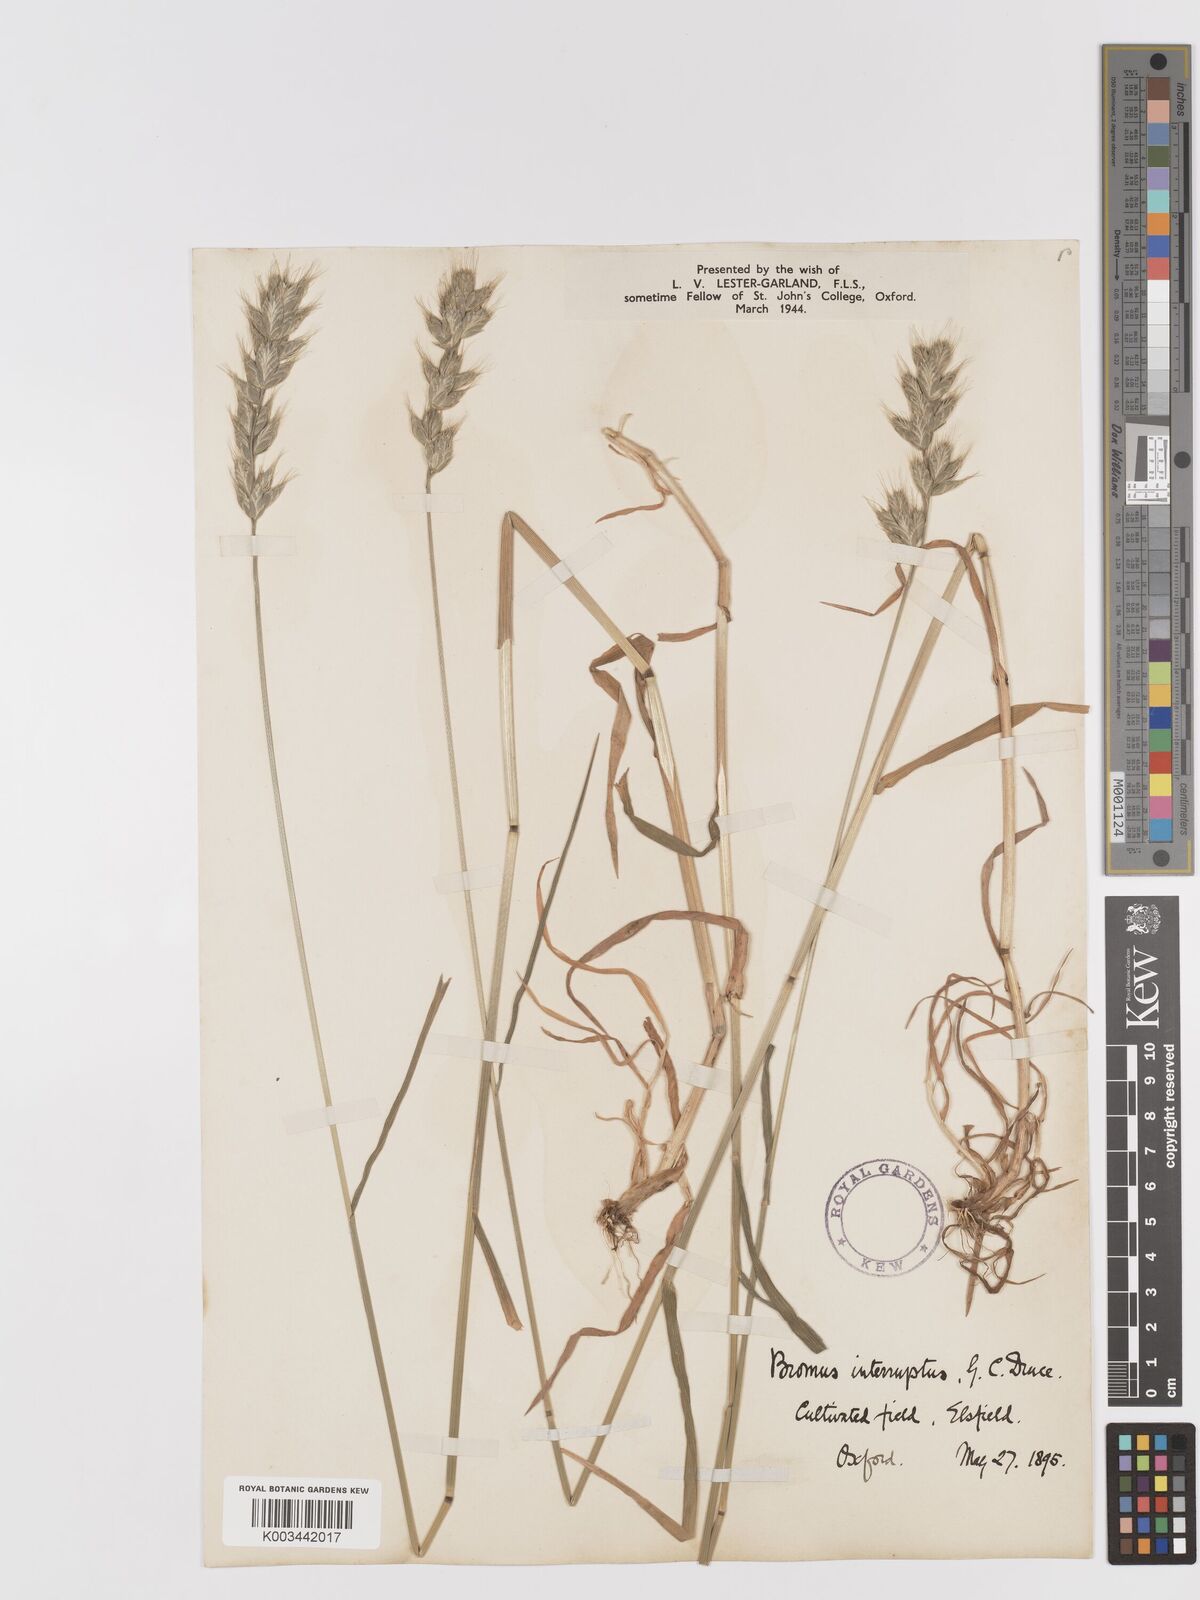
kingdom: Plantae
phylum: Tracheophyta
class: Liliopsida
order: Poales
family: Poaceae
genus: Bromus
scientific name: Bromus interruptus
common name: Interrupted brome
